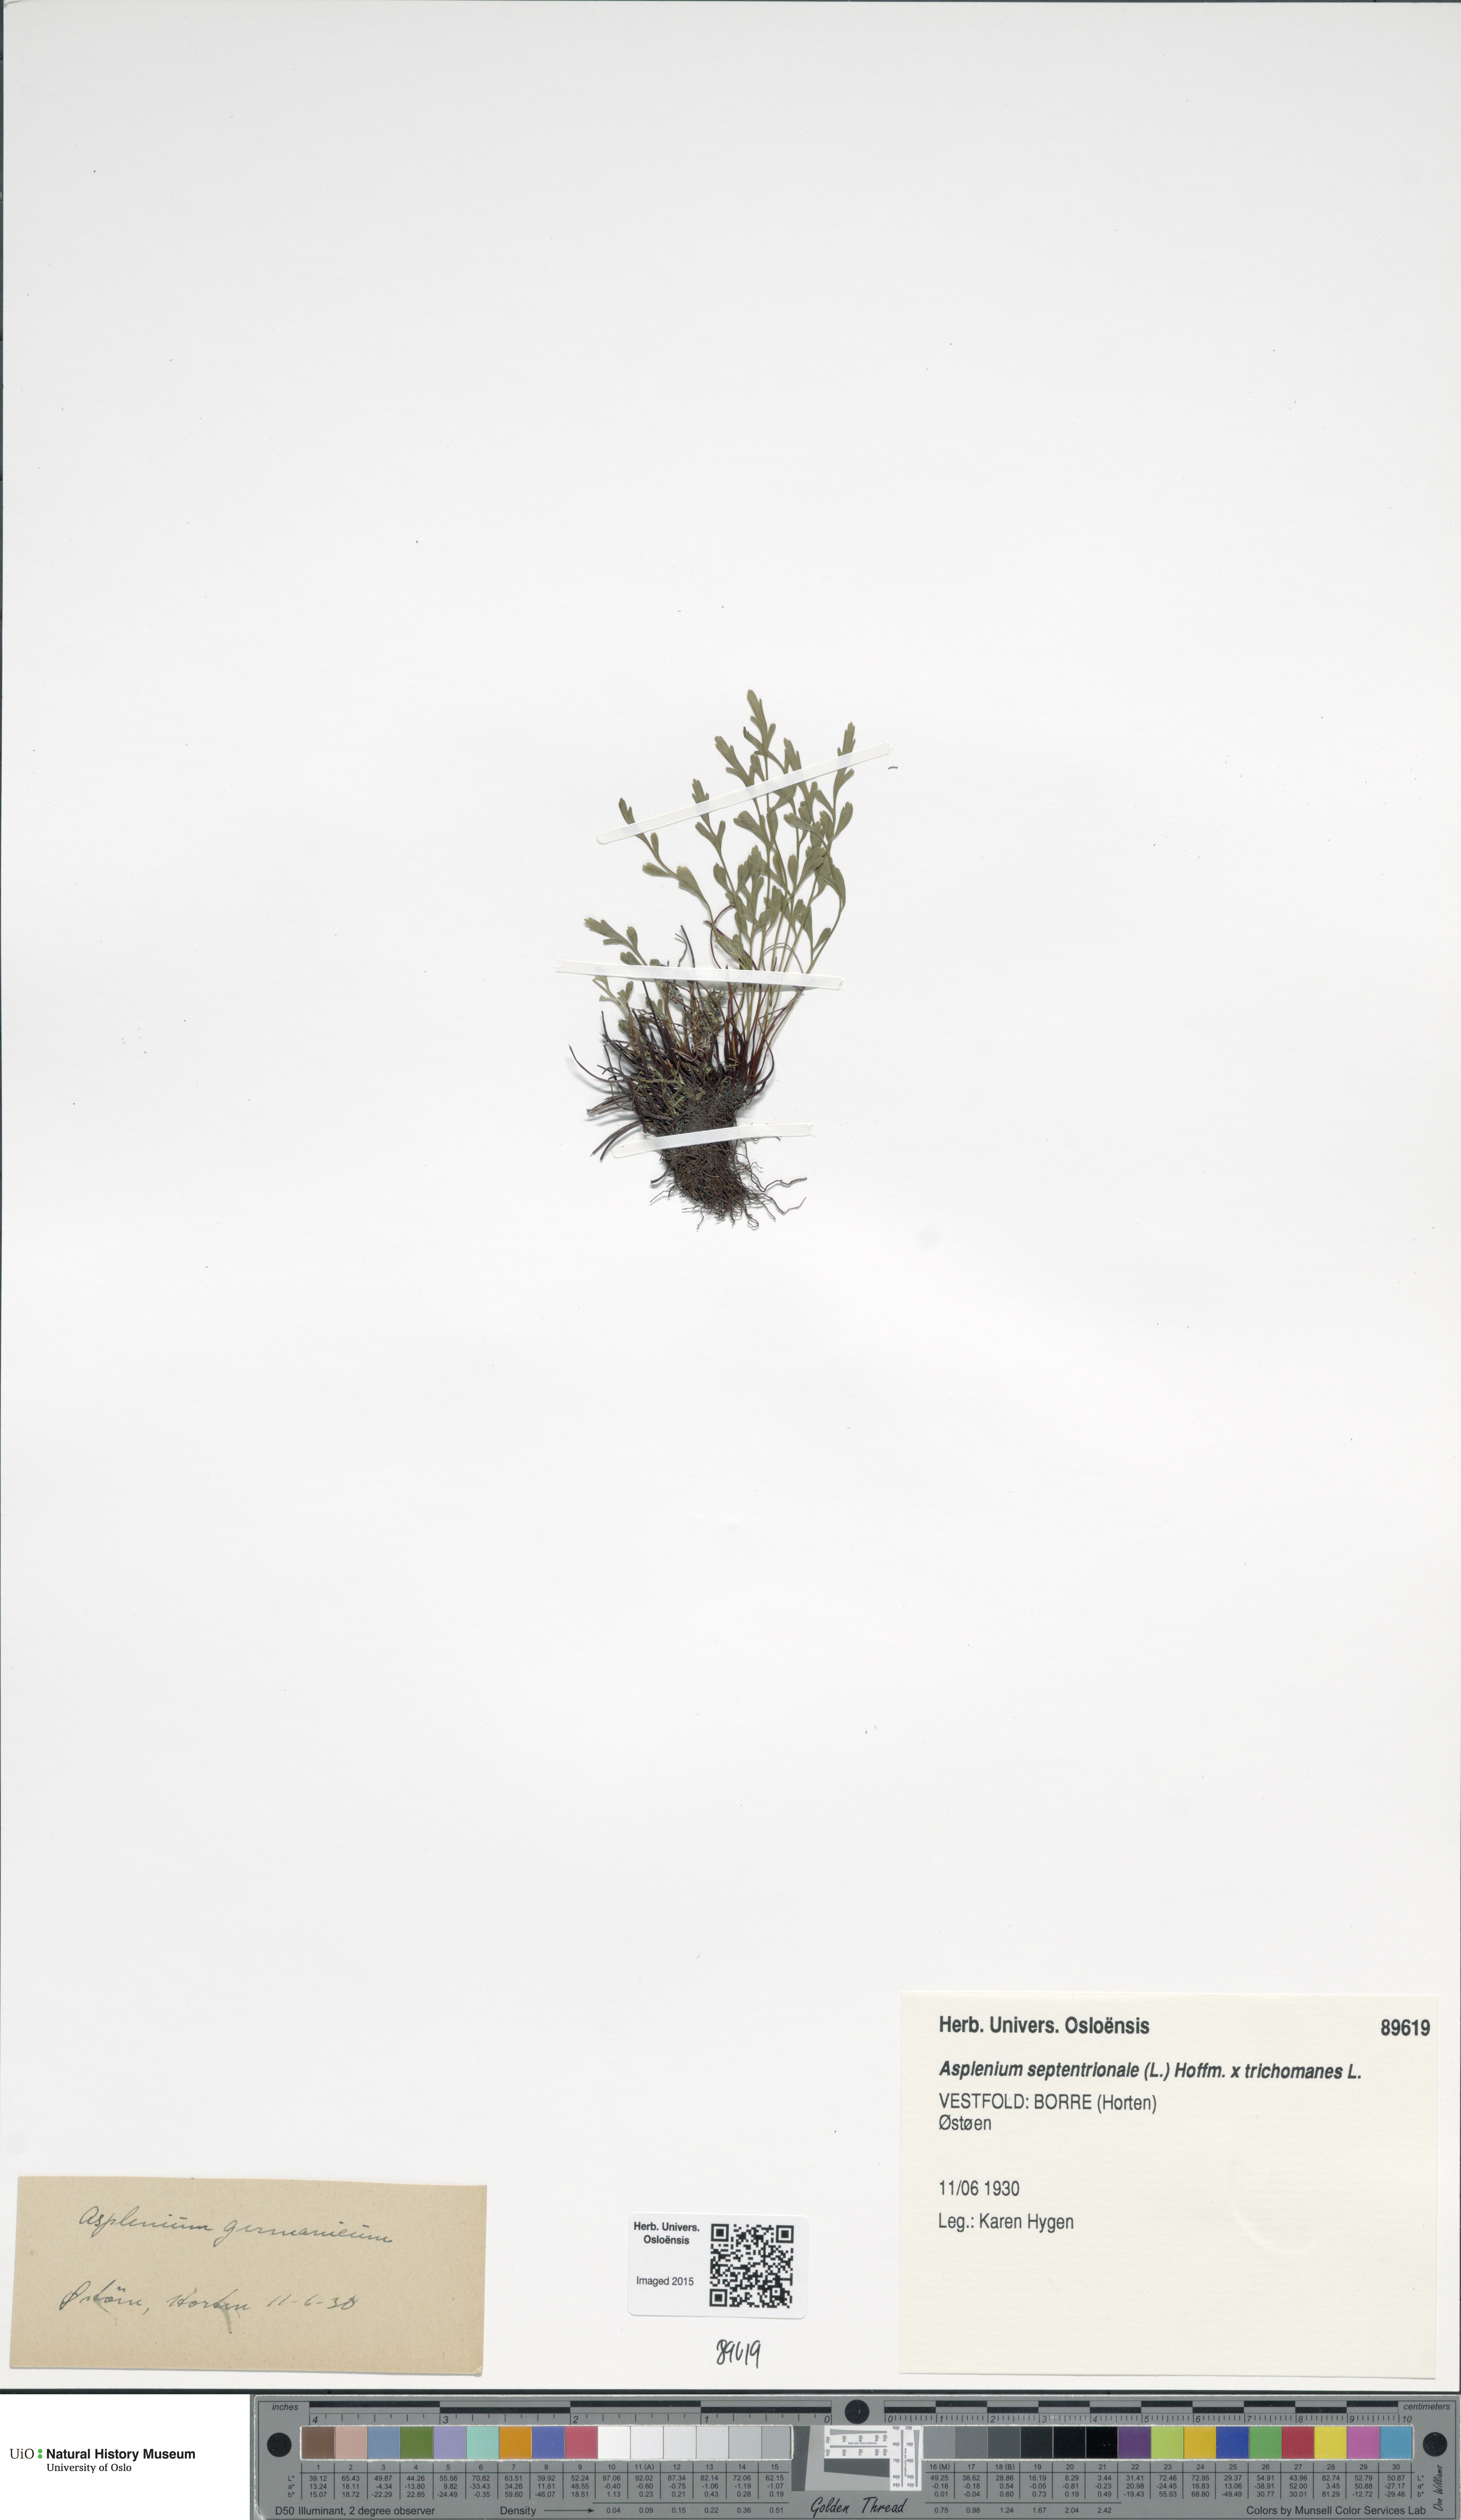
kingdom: Plantae
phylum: Tracheophyta
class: Polypodiopsida
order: Polypodiales
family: Aspleniaceae
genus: Asplenium
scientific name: Asplenium
